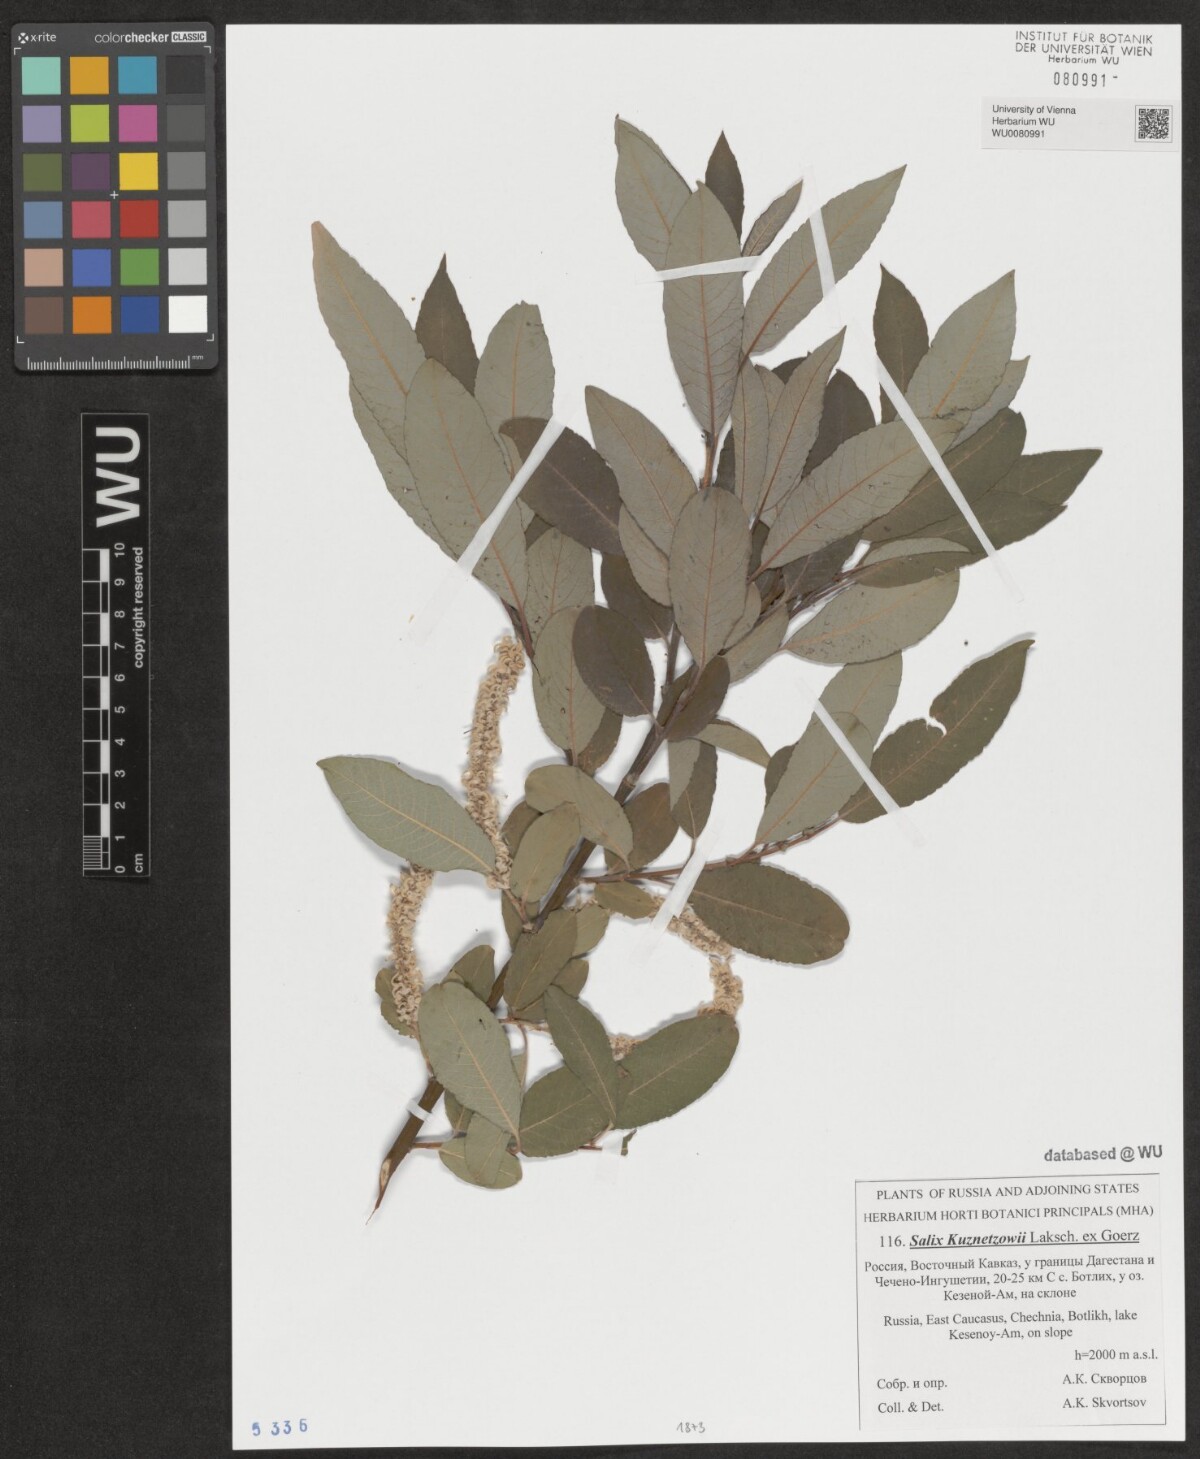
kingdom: Plantae
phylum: Tracheophyta
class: Magnoliopsida
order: Malpighiales
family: Salicaceae
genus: Salix
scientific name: Salix kusnetzowii
